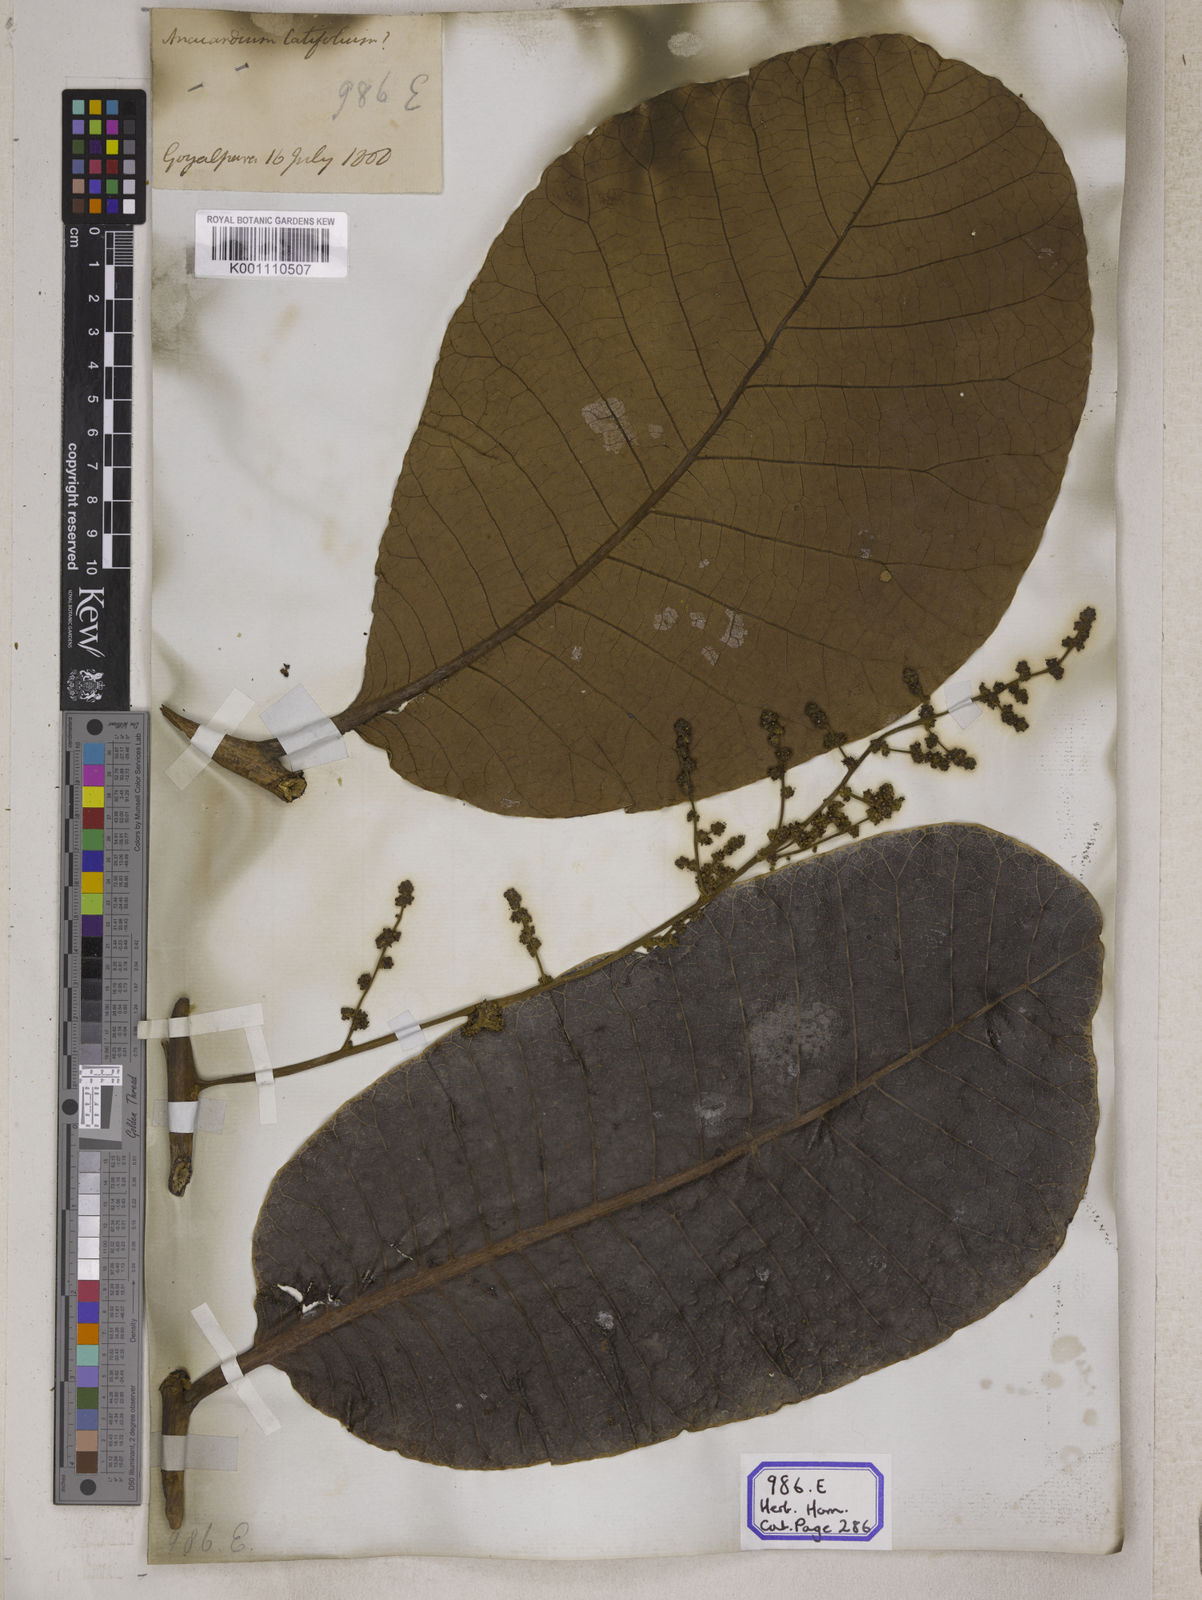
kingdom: Plantae
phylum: Tracheophyta
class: Magnoliopsida
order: Sapindales
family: Anacardiaceae
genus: Semecarpus
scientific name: Semecarpus anacardium
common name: Marking nut-tree
